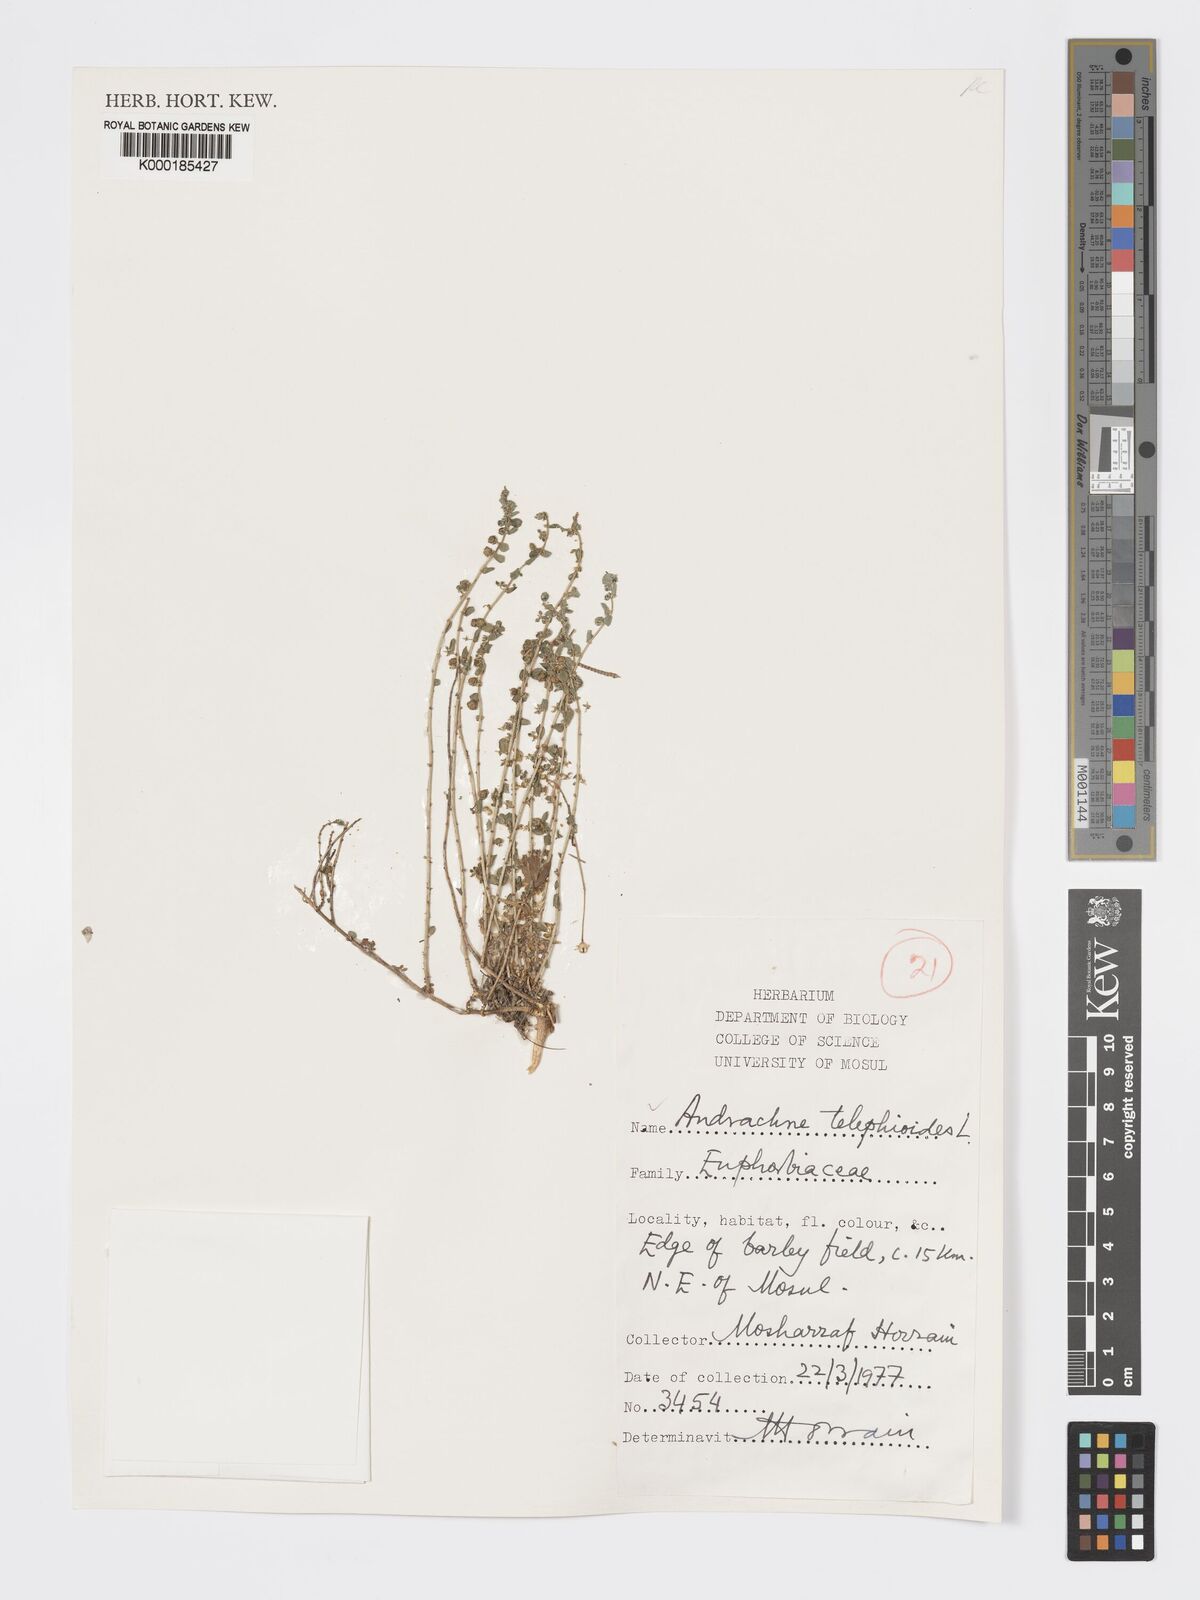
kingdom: Plantae
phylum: Tracheophyta
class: Magnoliopsida
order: Malpighiales
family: Phyllanthaceae
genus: Andrachne
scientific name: Andrachne telephioides
